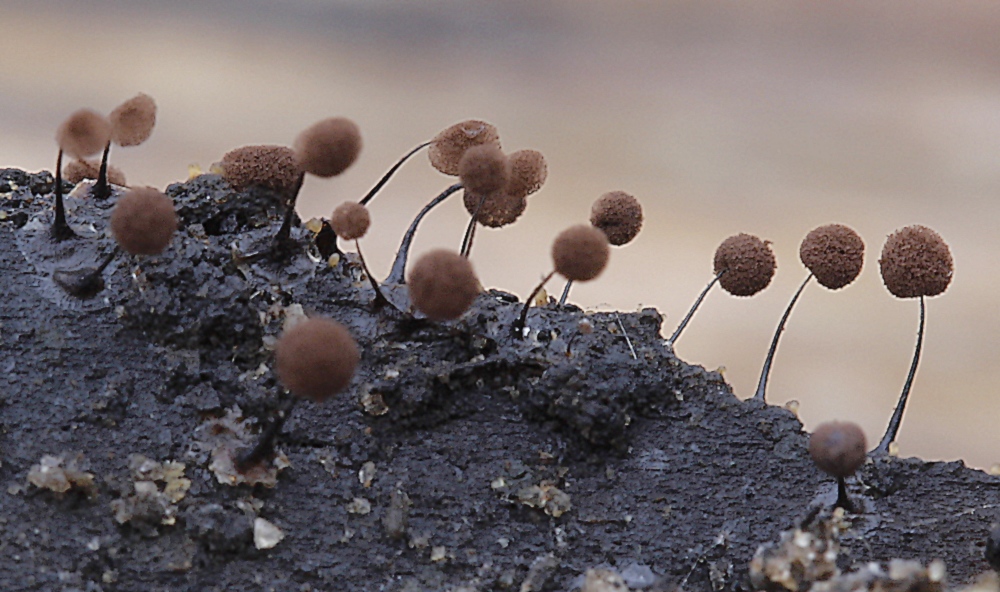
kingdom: Protozoa
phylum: Mycetozoa
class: Myxomycetes
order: Stemonitidales
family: Stemonitidaceae
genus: Comatricha
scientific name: Comatricha nigra
